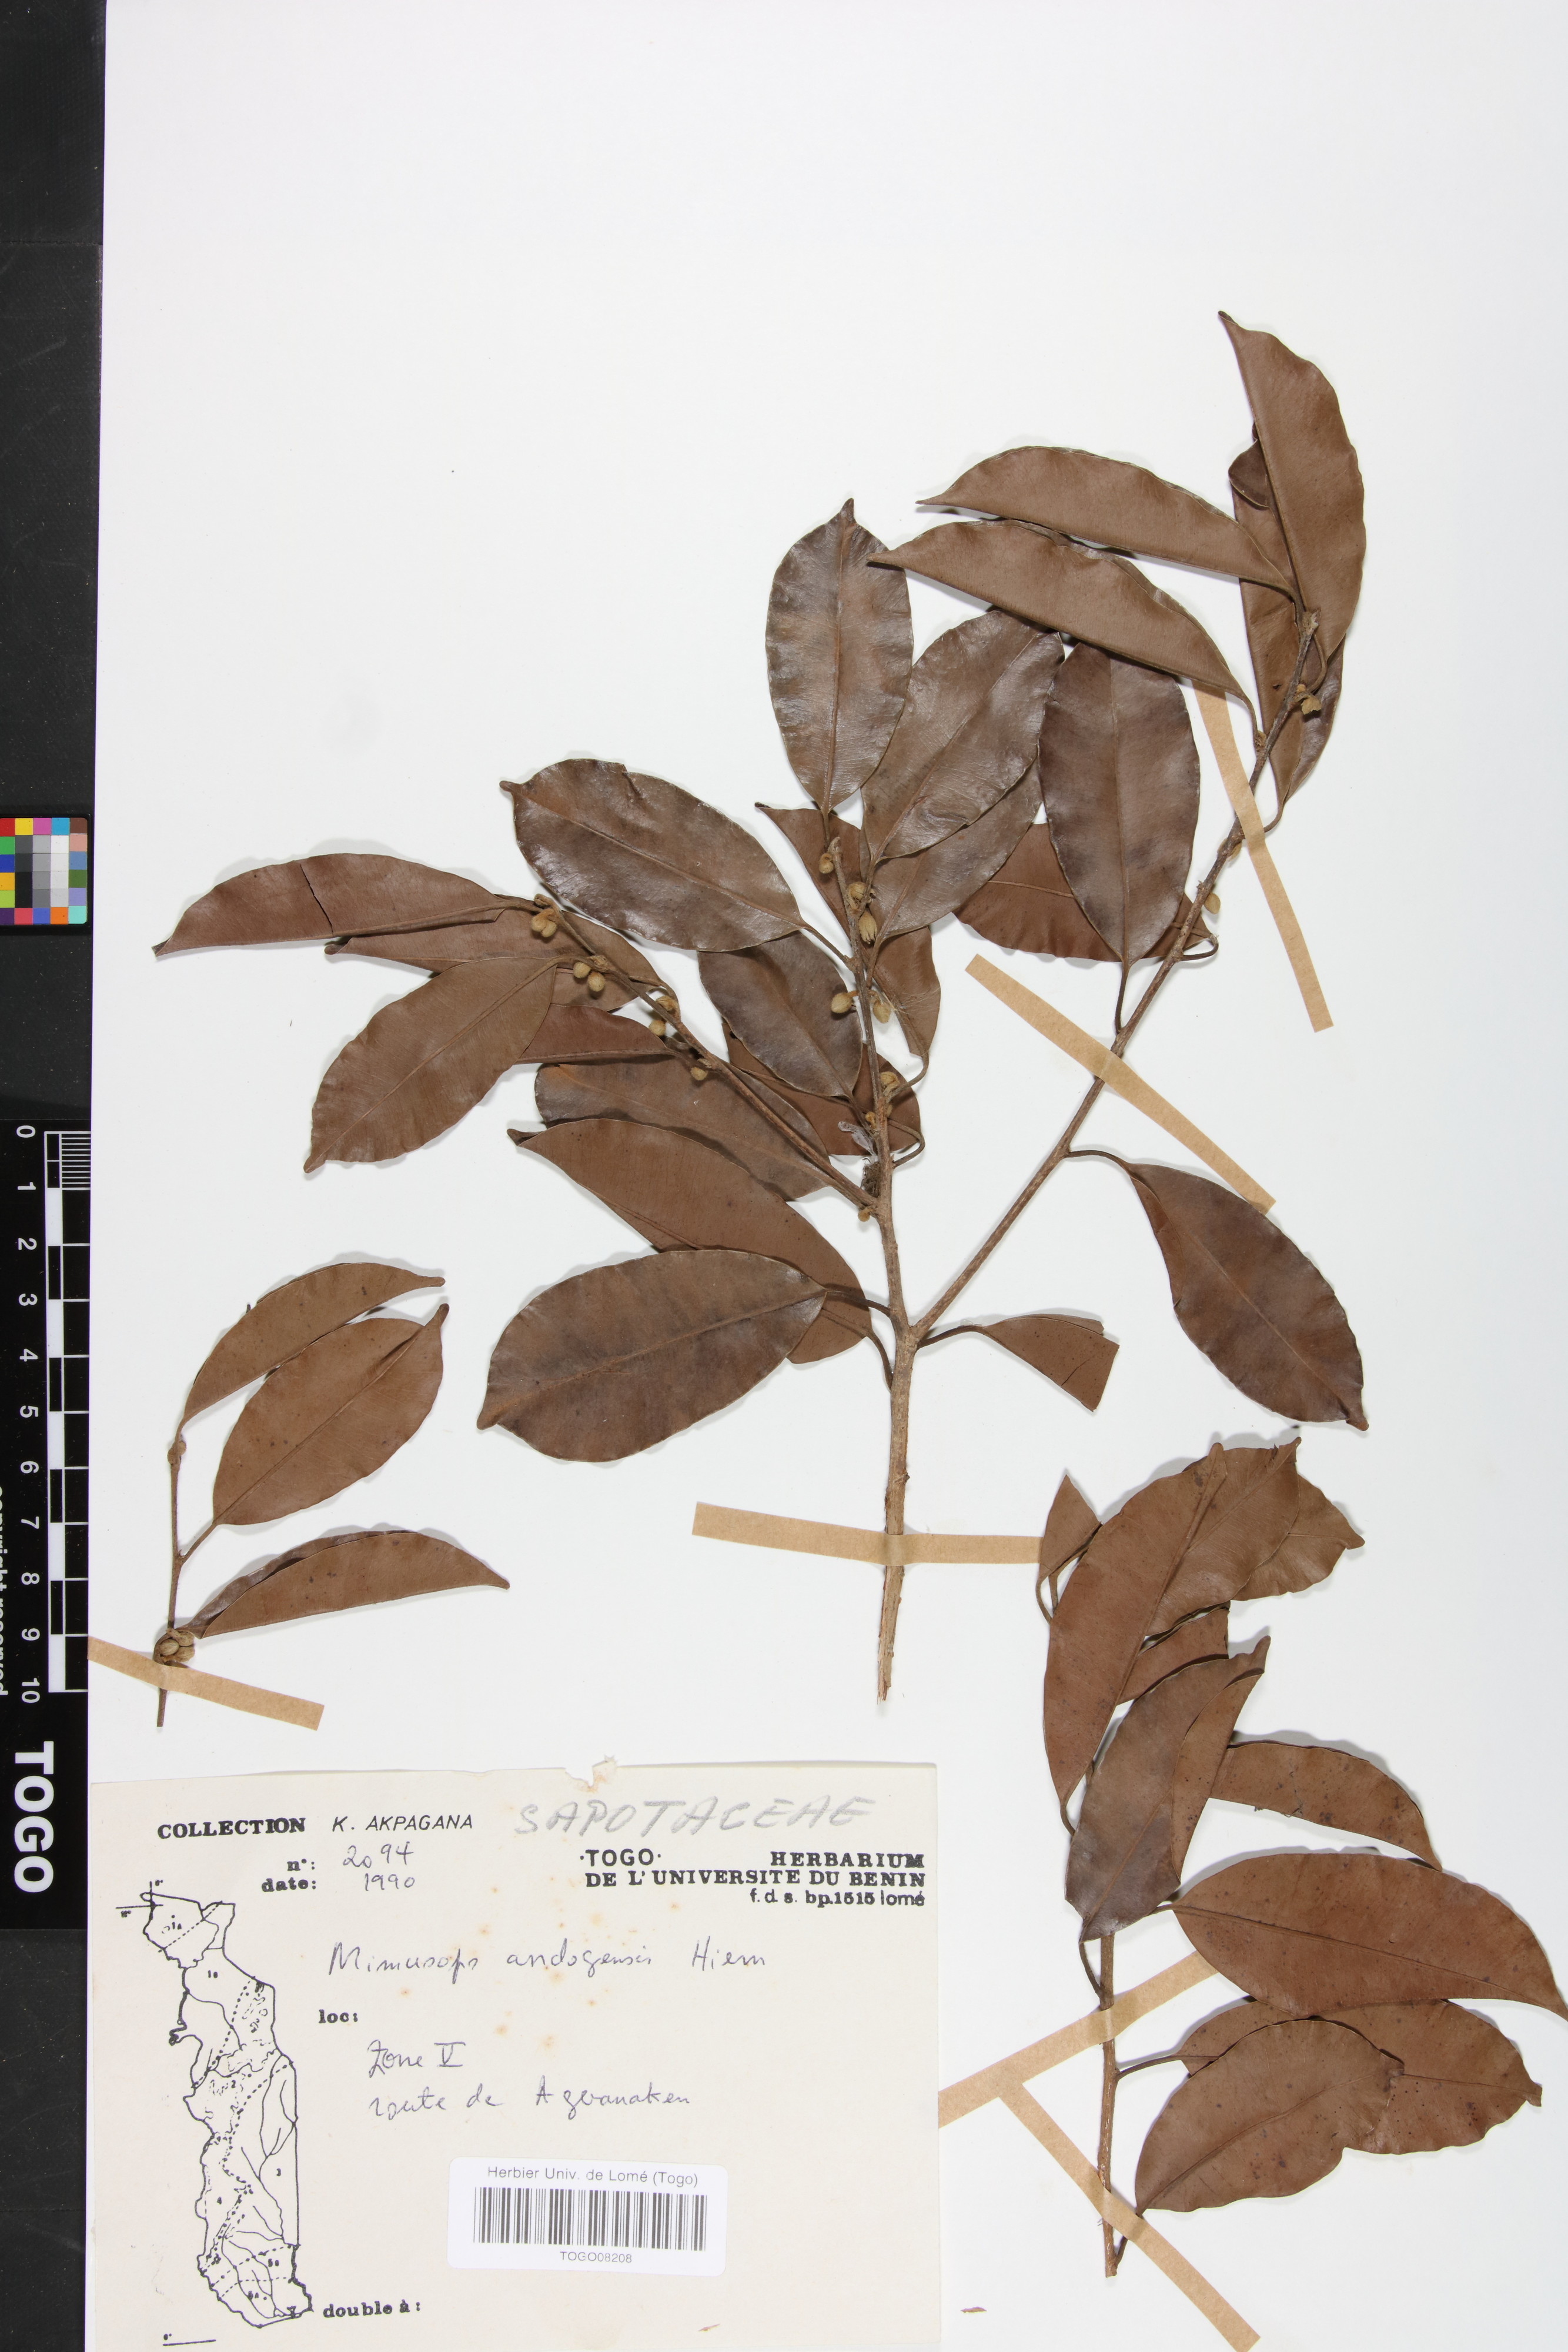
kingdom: Plantae
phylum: Tracheophyta
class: Magnoliopsida
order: Ericales
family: Sapotaceae
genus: Mimusops
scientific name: Mimusops andongensis
